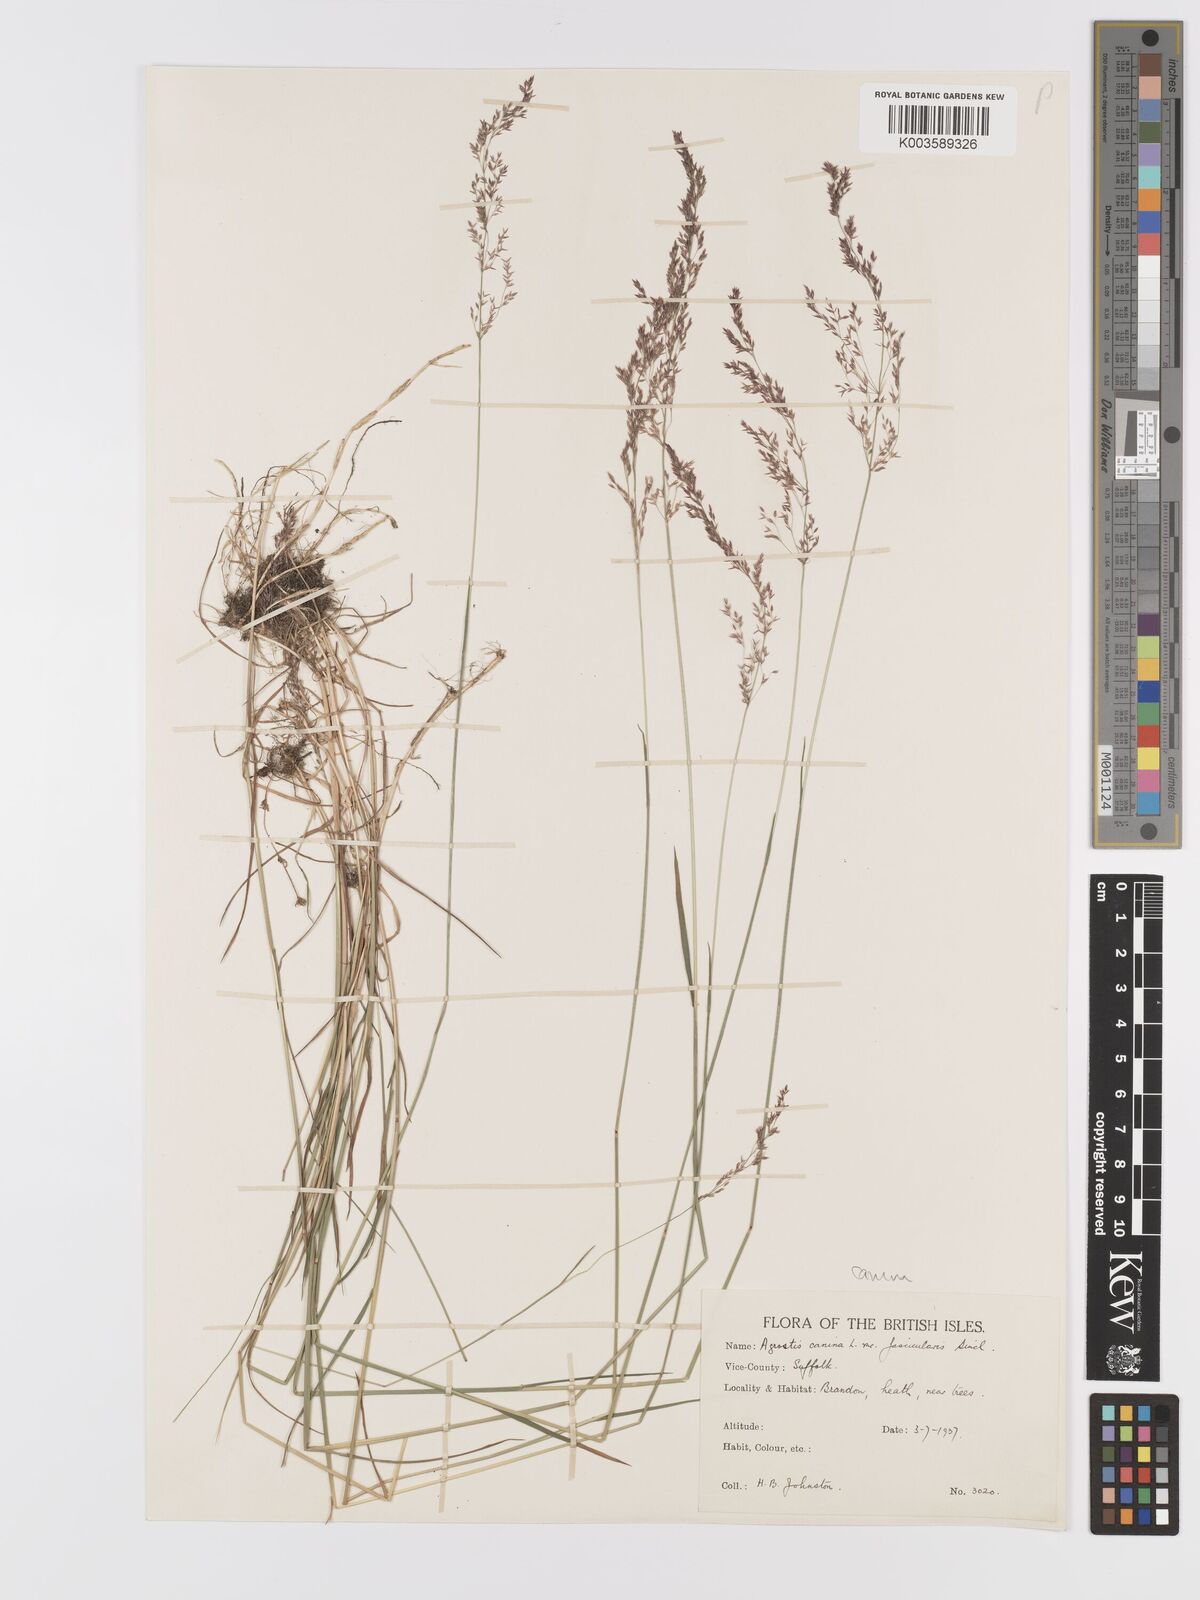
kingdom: Plantae
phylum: Tracheophyta
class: Liliopsida
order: Poales
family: Poaceae
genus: Agrostis
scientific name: Agrostis canina
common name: Velvet bent
